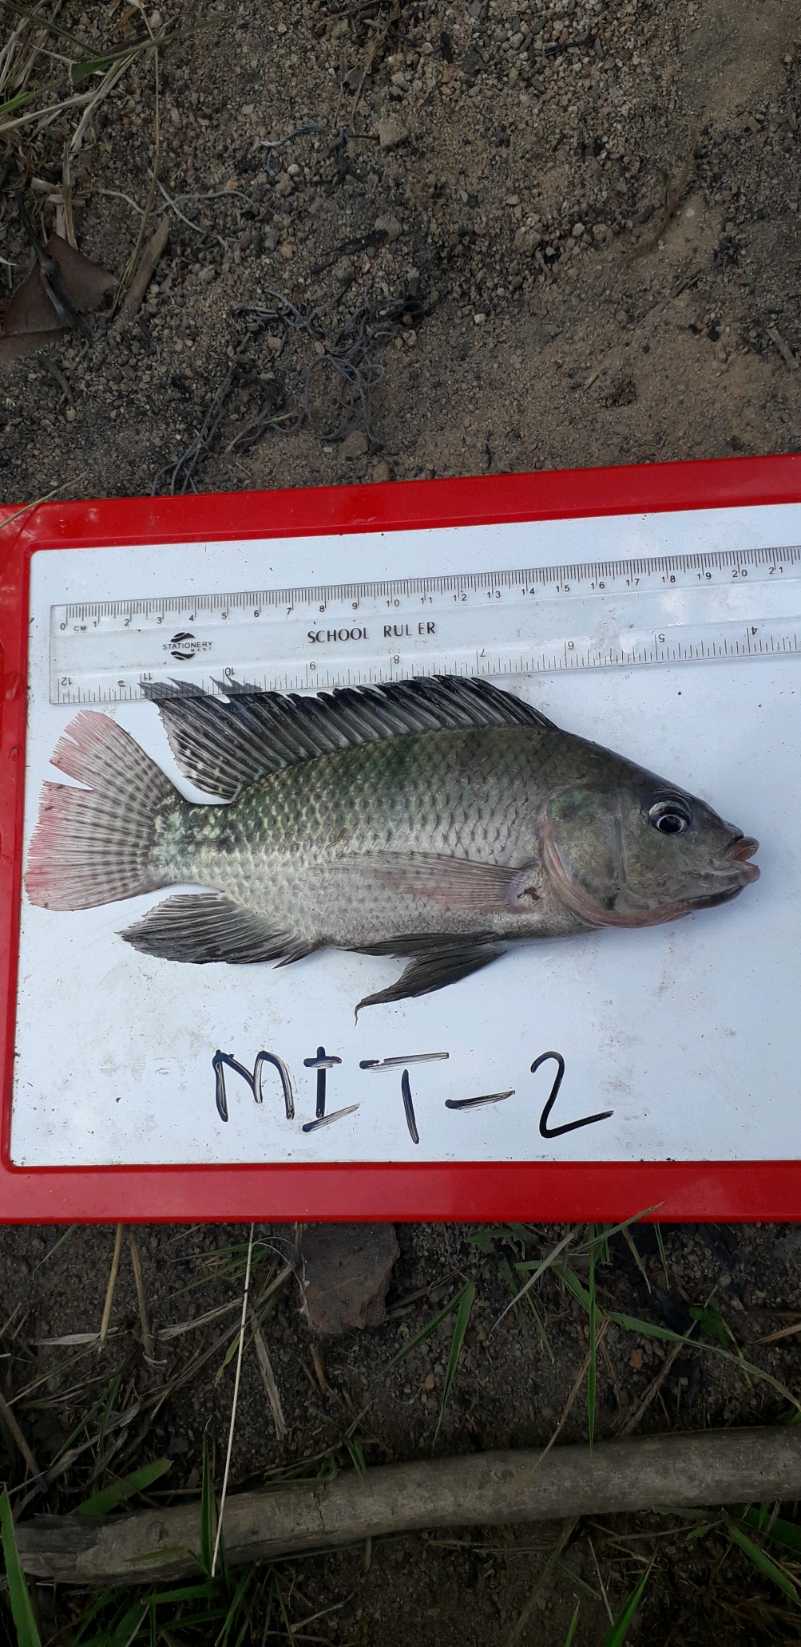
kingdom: Animalia
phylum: Chordata
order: Perciformes
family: Cichlidae
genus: Oreochromis
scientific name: Oreochromis niloticus
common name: Nile tilapia
